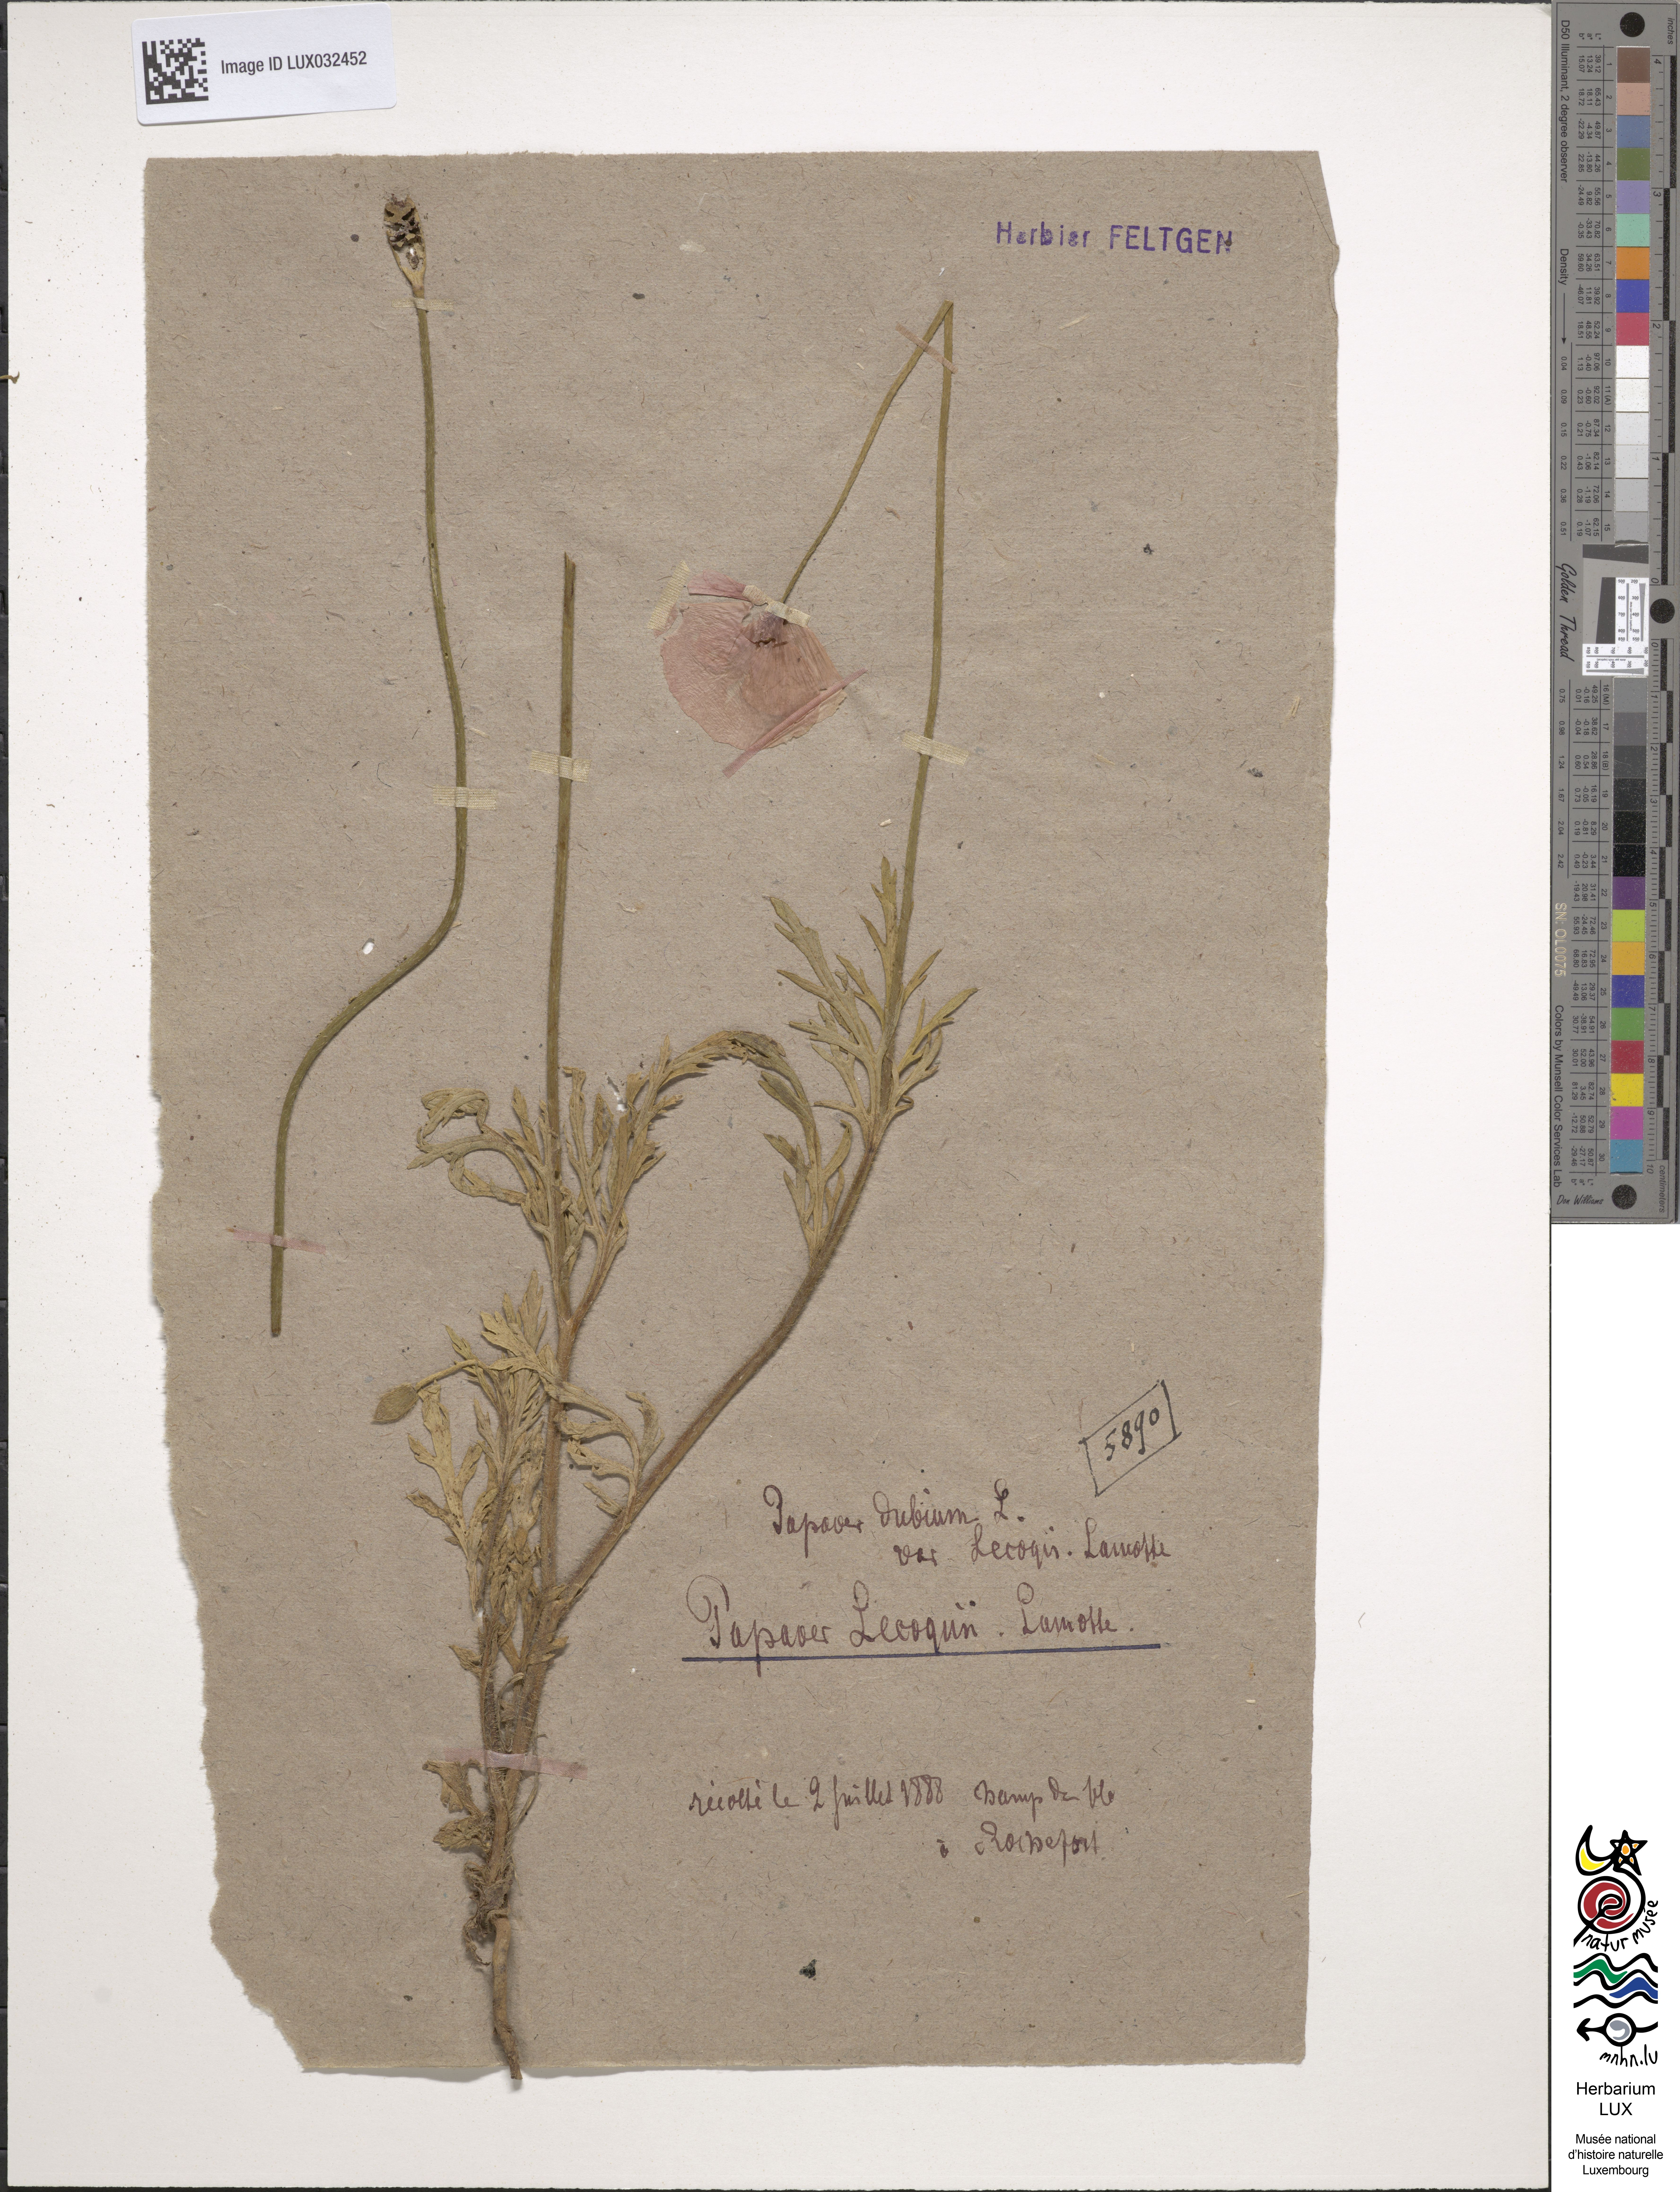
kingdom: Plantae
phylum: Tracheophyta
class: Magnoliopsida
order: Ranunculales
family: Papaveraceae
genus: Papaver
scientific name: Papaver lecoqii
